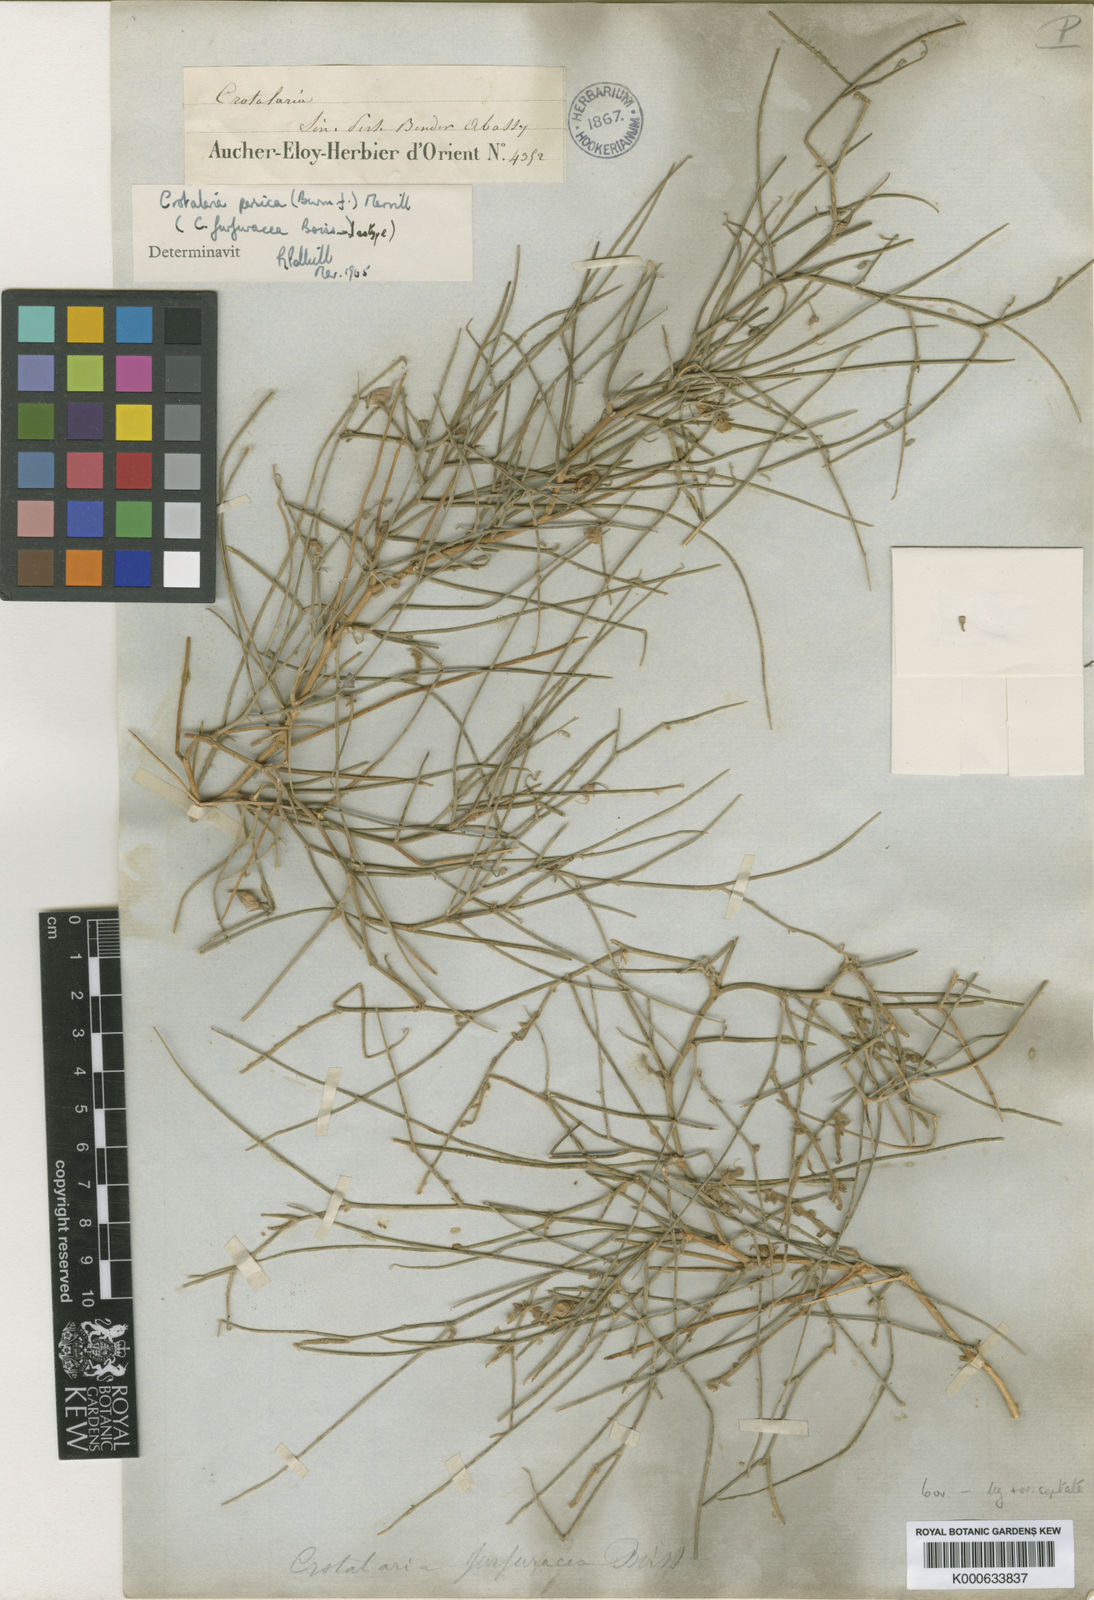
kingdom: Plantae
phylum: Tracheophyta
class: Magnoliopsida
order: Fabales
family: Fabaceae
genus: Crotalaria
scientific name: Crotalaria persica
